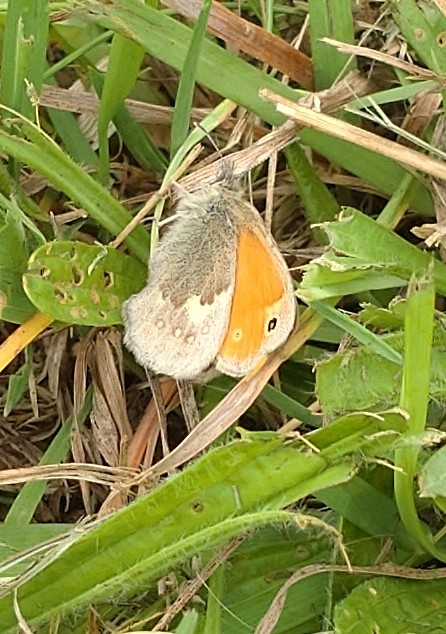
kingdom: Animalia
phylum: Arthropoda
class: Insecta
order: Lepidoptera
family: Nymphalidae
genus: Coenonympha
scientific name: Coenonympha pamphilus
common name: Okkergul randøje
